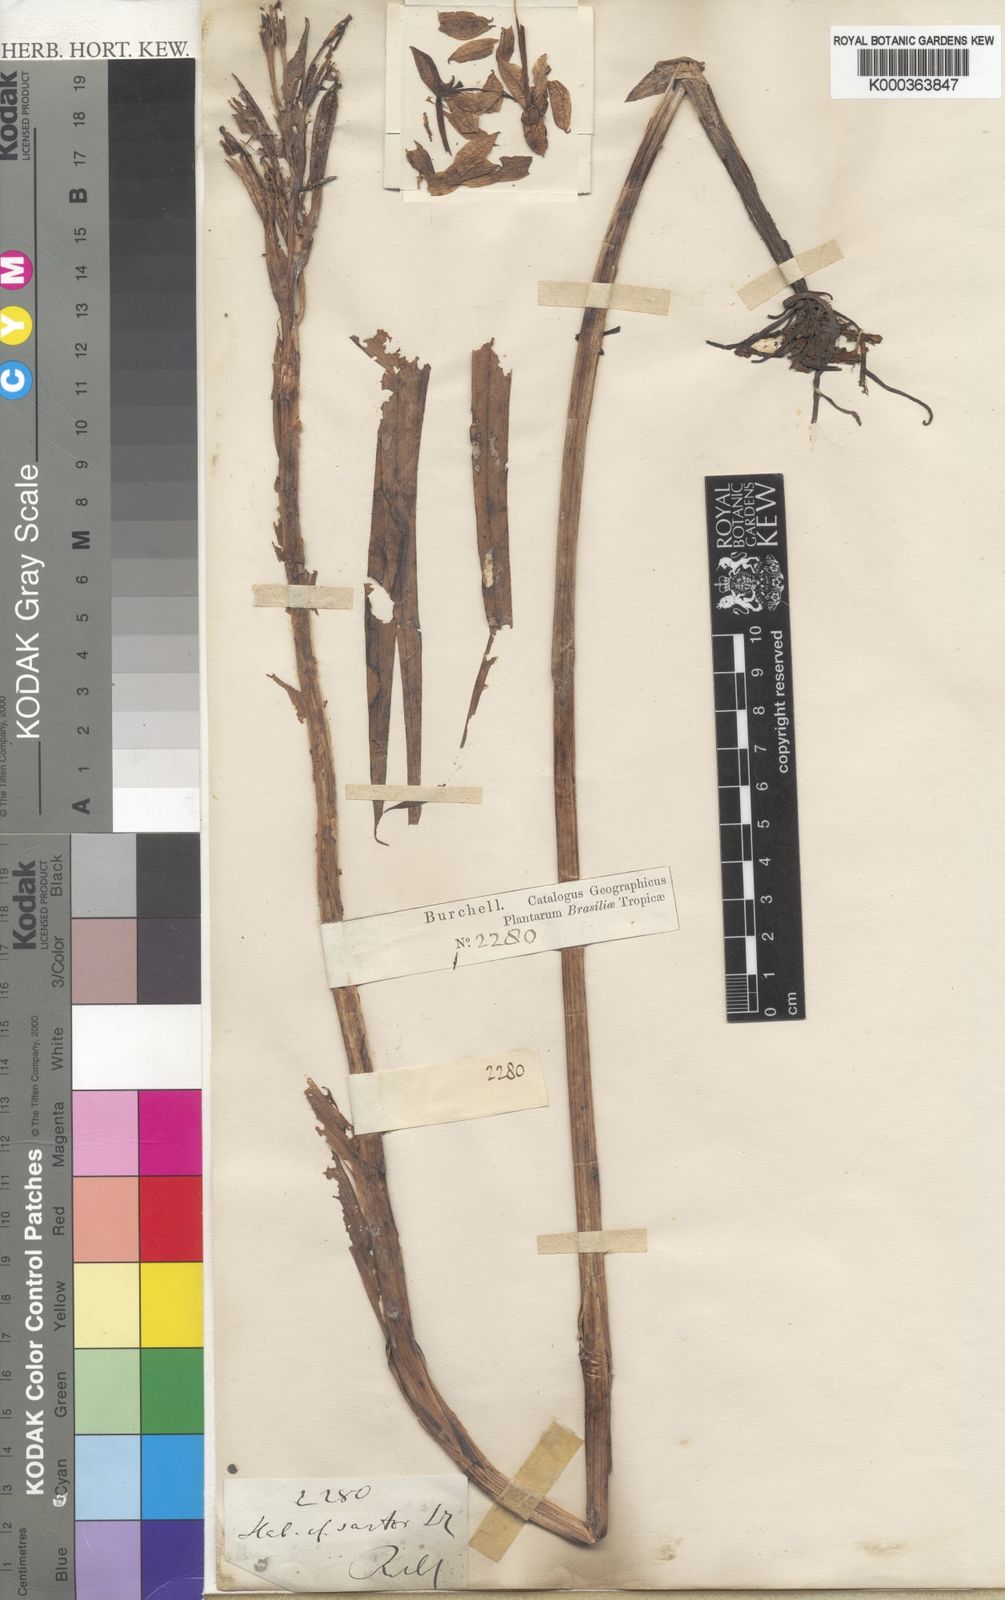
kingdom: Plantae
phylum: Tracheophyta
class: Liliopsida
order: Asparagales
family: Orchidaceae
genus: Habenaria
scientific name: Habenaria sartor
